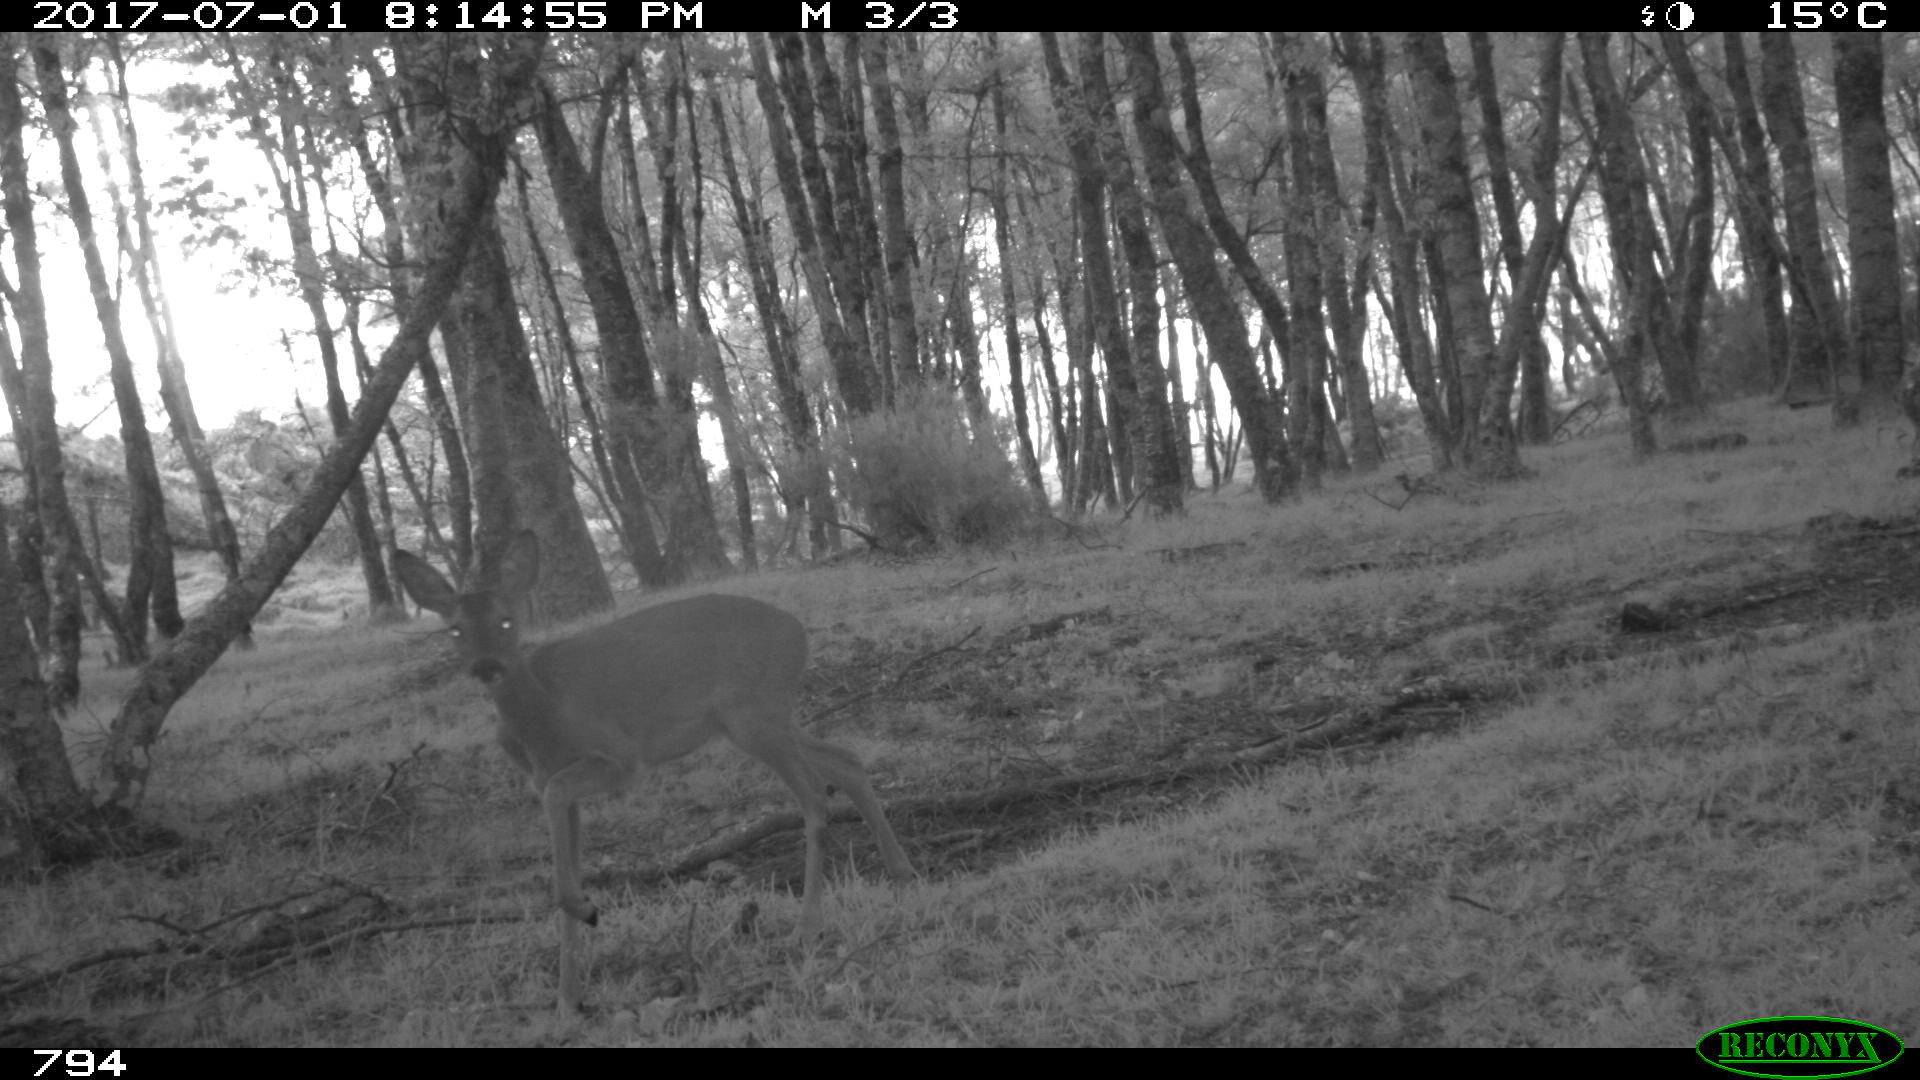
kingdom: Animalia
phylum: Chordata
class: Mammalia
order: Artiodactyla
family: Cervidae
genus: Capreolus
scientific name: Capreolus capreolus
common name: Western roe deer
